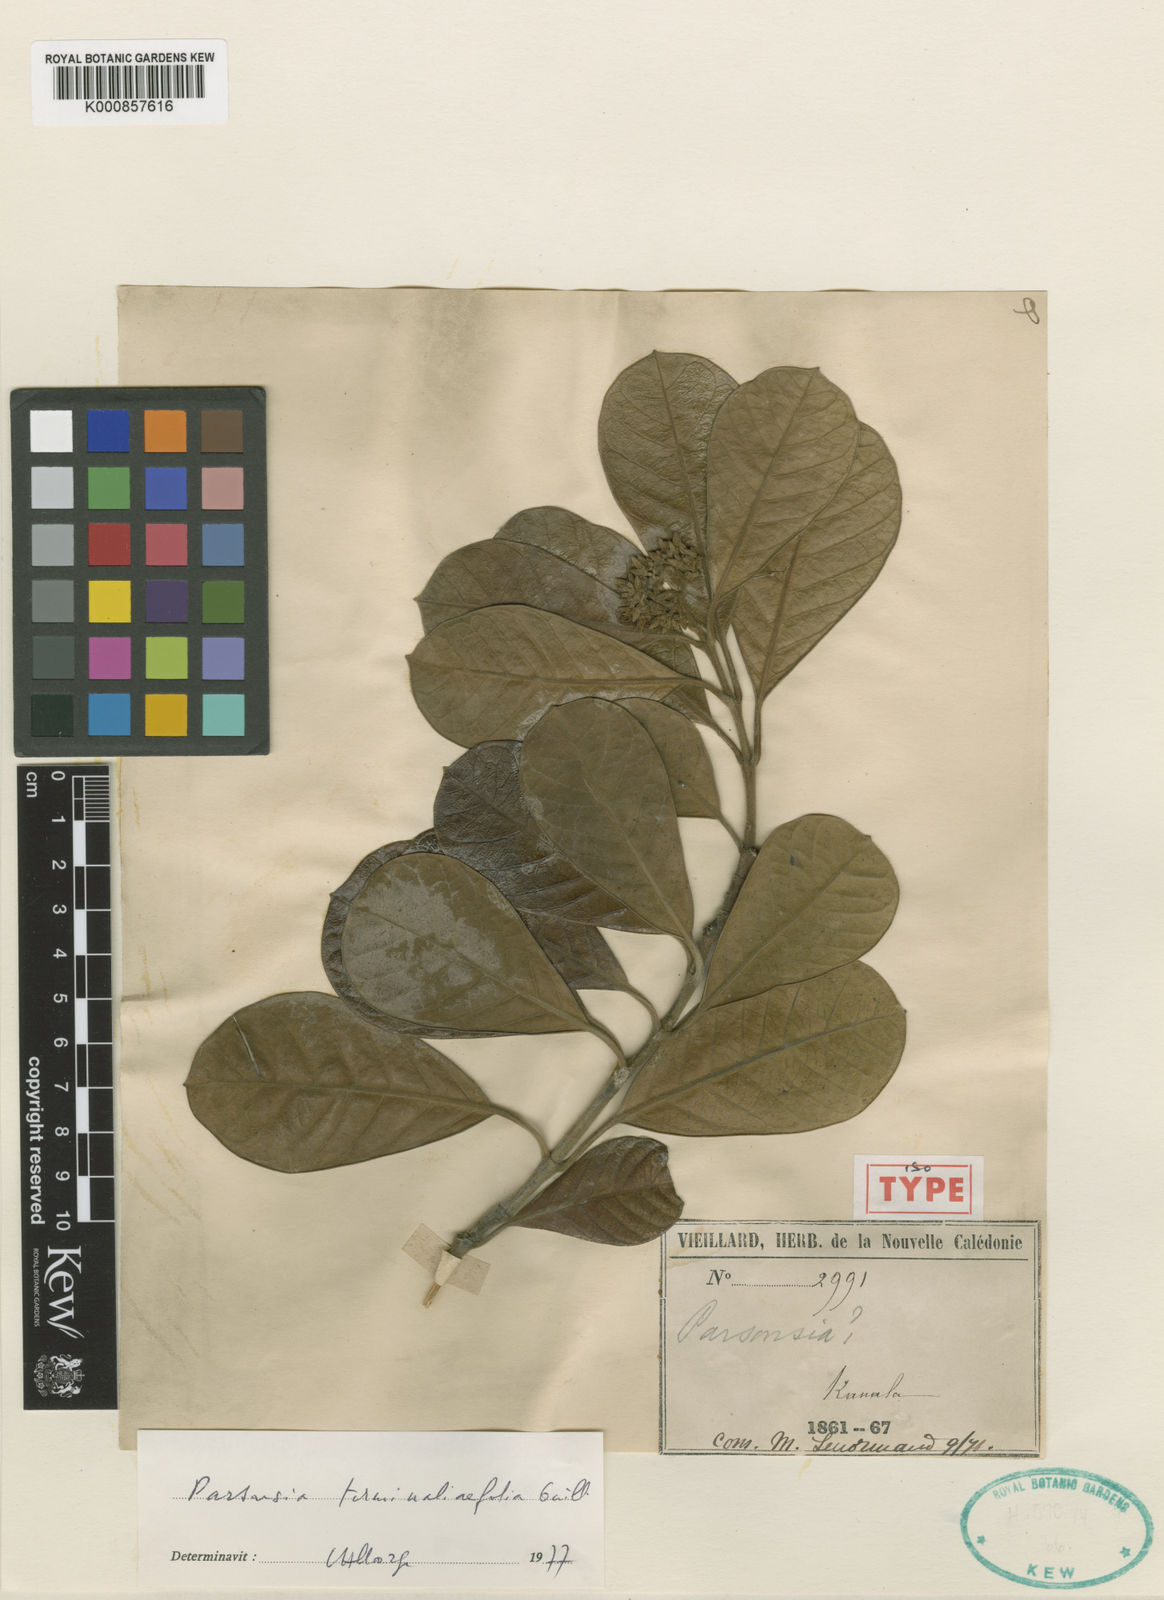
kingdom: Plantae
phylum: Tracheophyta
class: Magnoliopsida
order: Gentianales
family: Apocynaceae
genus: Parsonsia
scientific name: Parsonsia terminaliifolia
